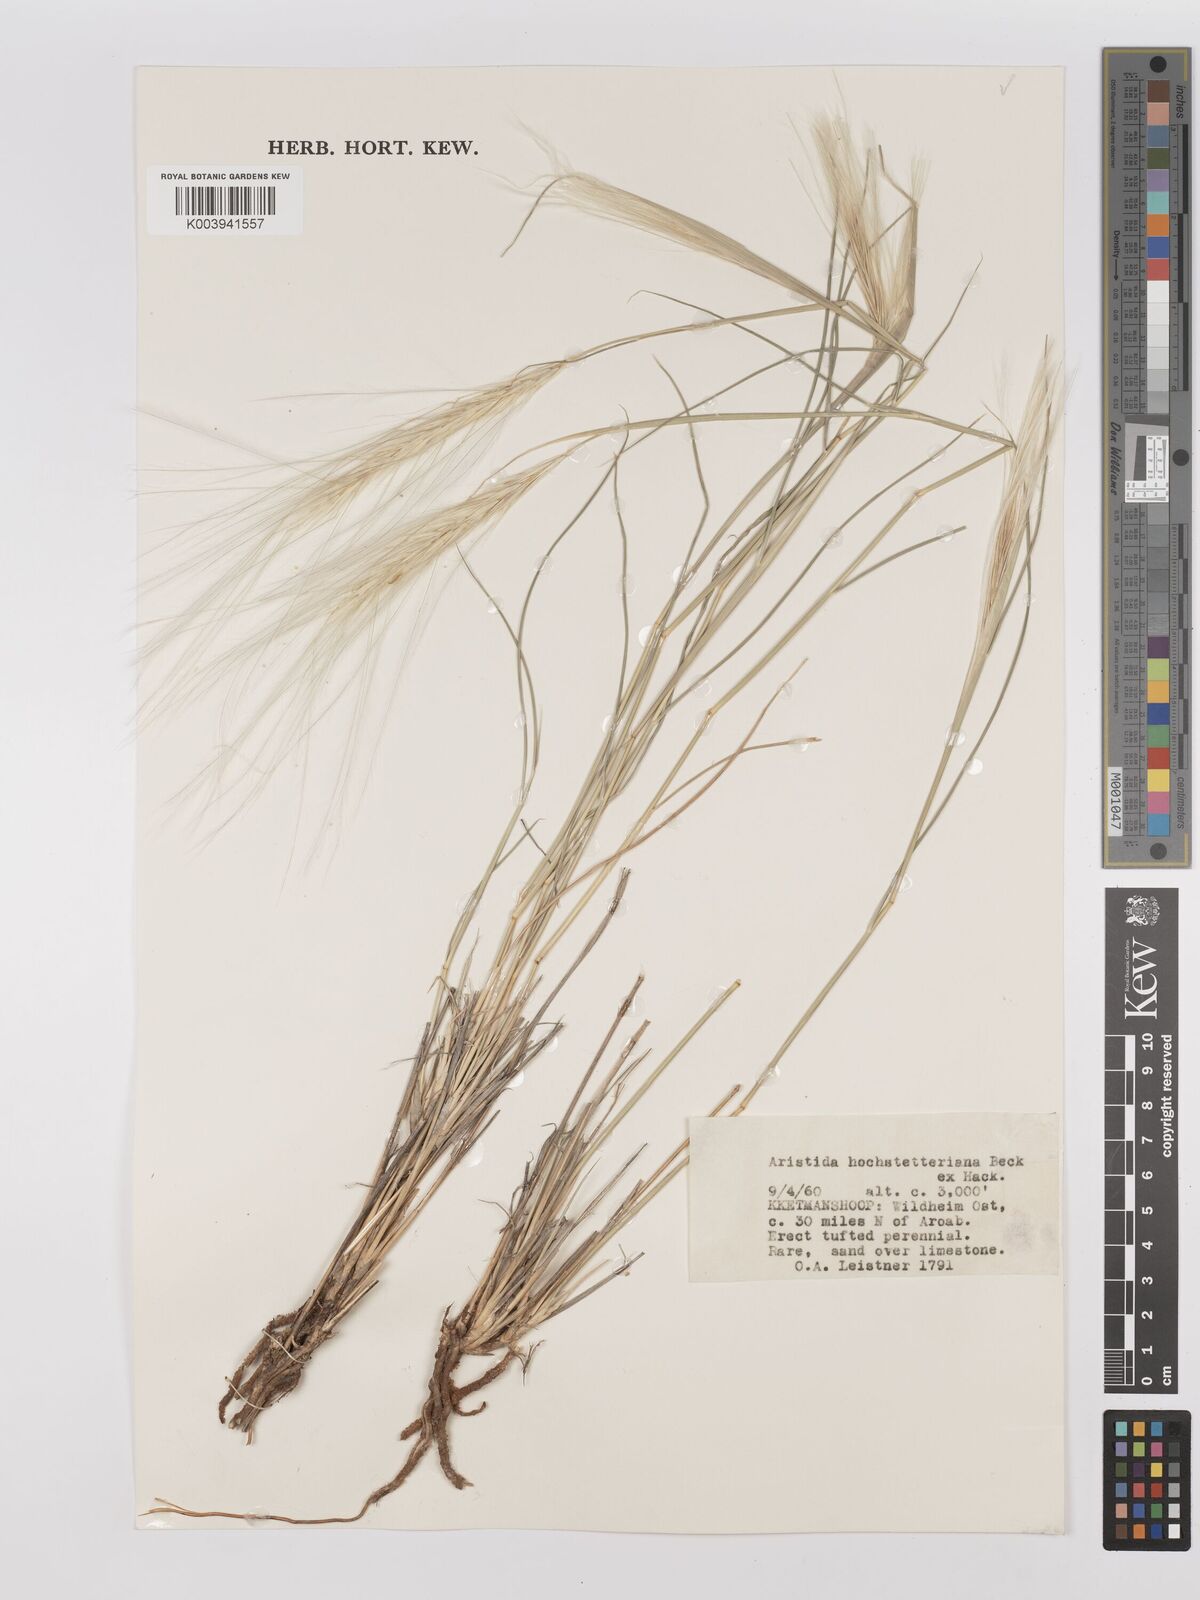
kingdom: Plantae
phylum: Tracheophyta
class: Liliopsida
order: Poales
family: Poaceae
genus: Stipagrostis
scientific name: Stipagrostis hochstetteriana
